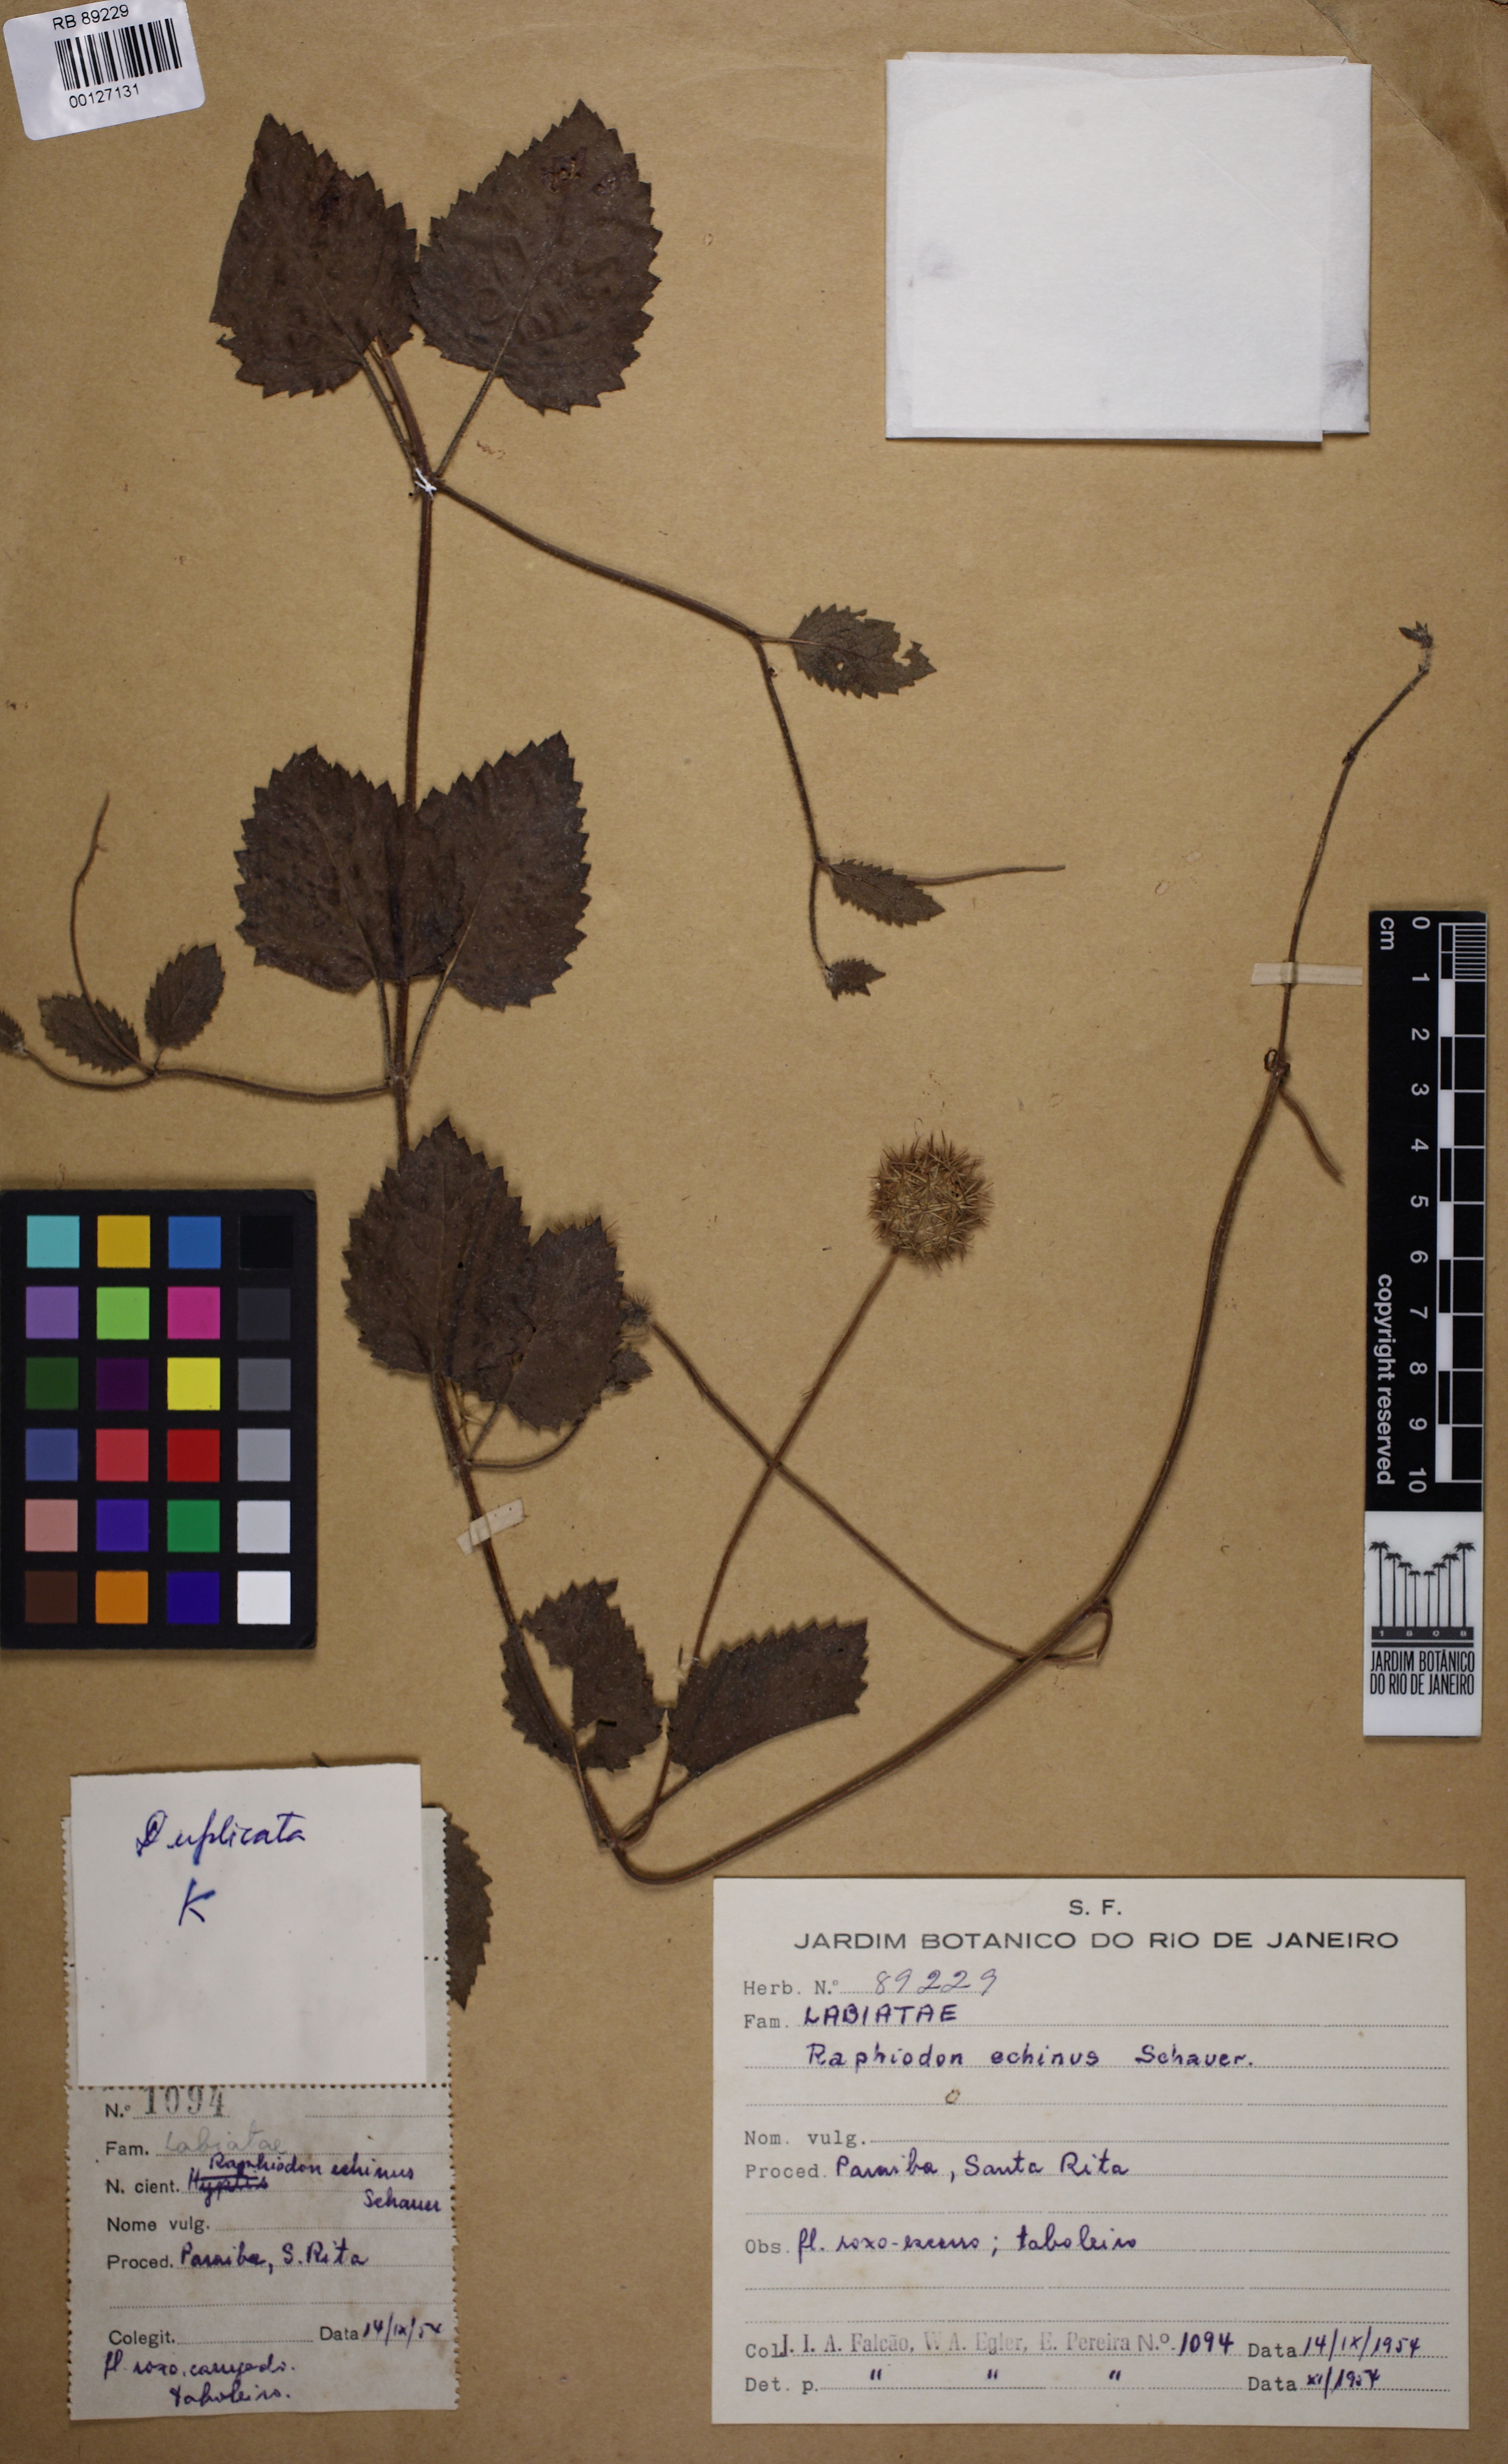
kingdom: Plantae
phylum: Tracheophyta
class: Magnoliopsida
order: Lamiales
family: Lamiaceae
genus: Rhaphiodon
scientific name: Rhaphiodon echinus
